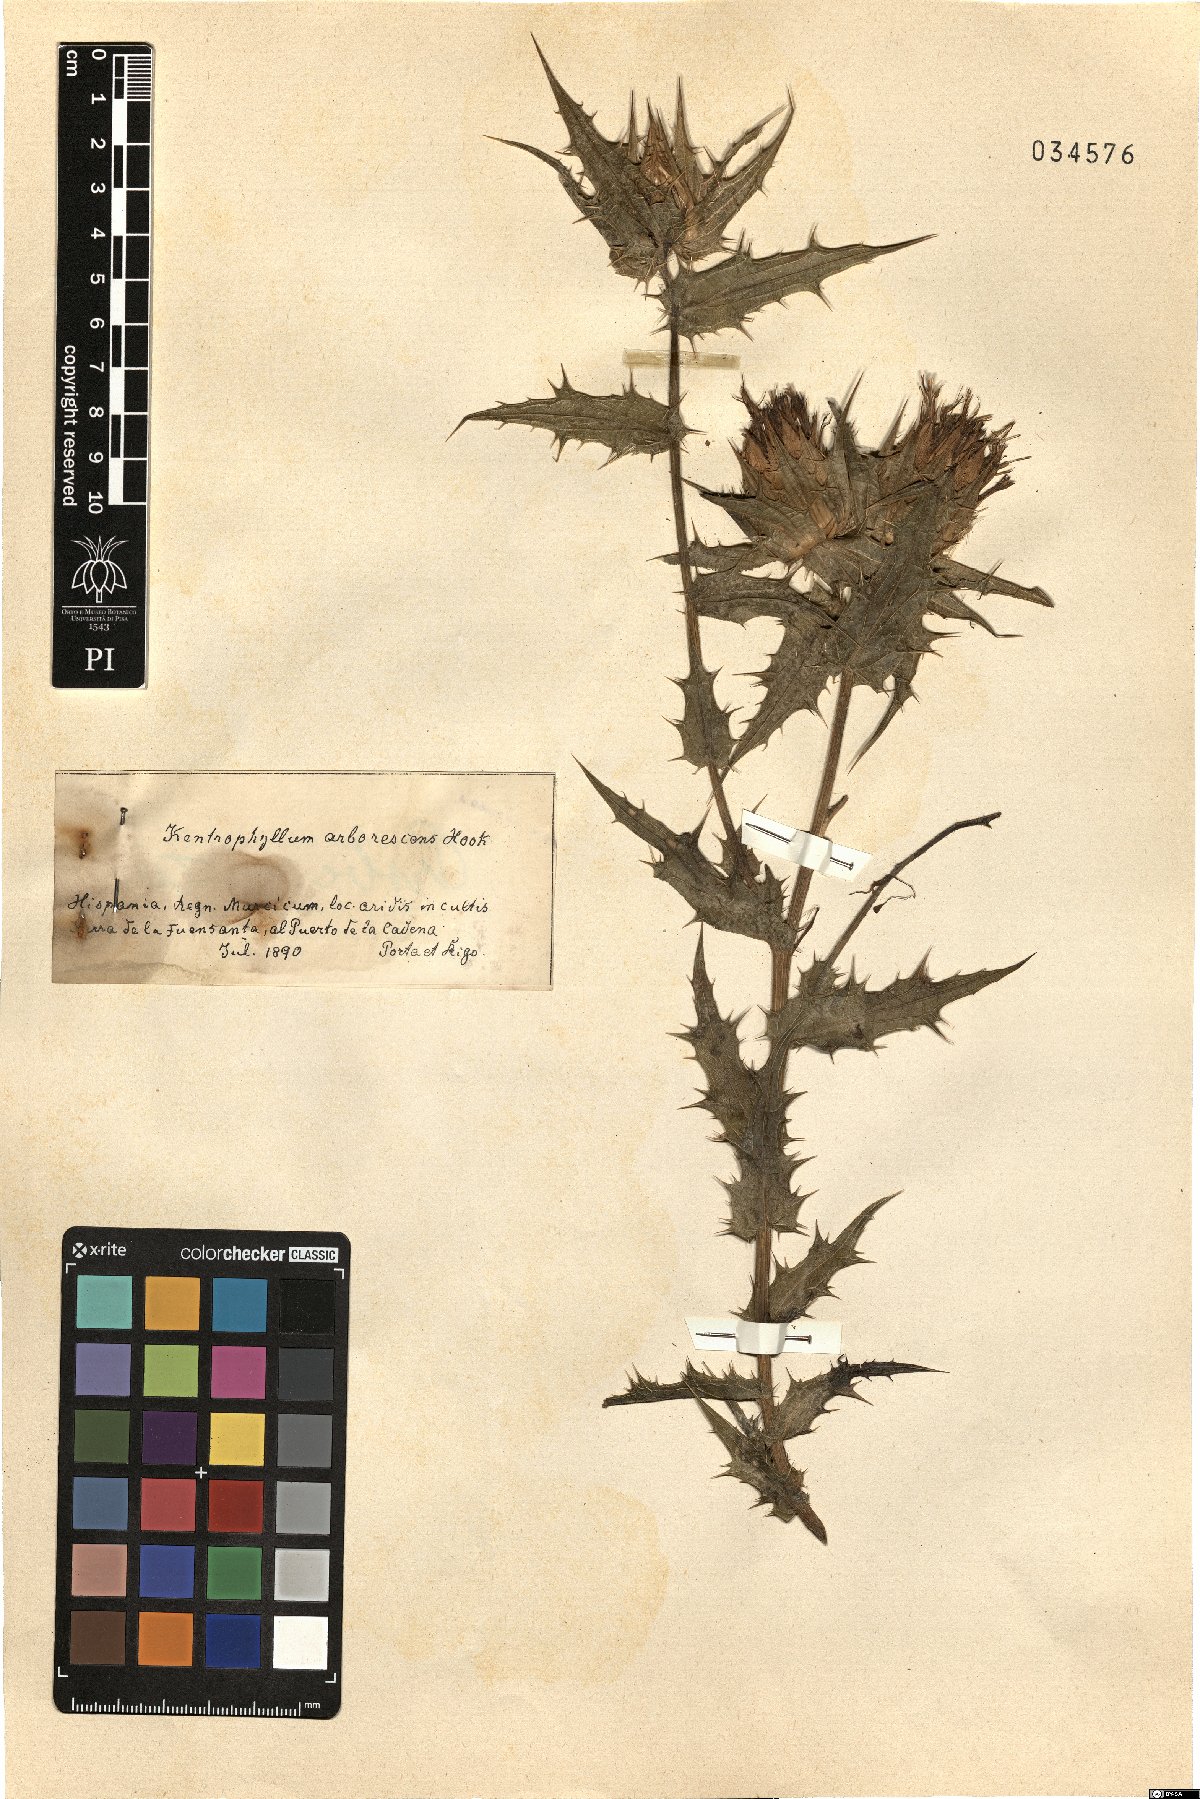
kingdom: Plantae
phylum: Tracheophyta
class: Magnoliopsida
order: Asterales
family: Asteraceae
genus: Phonus
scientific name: Phonus arborescens
